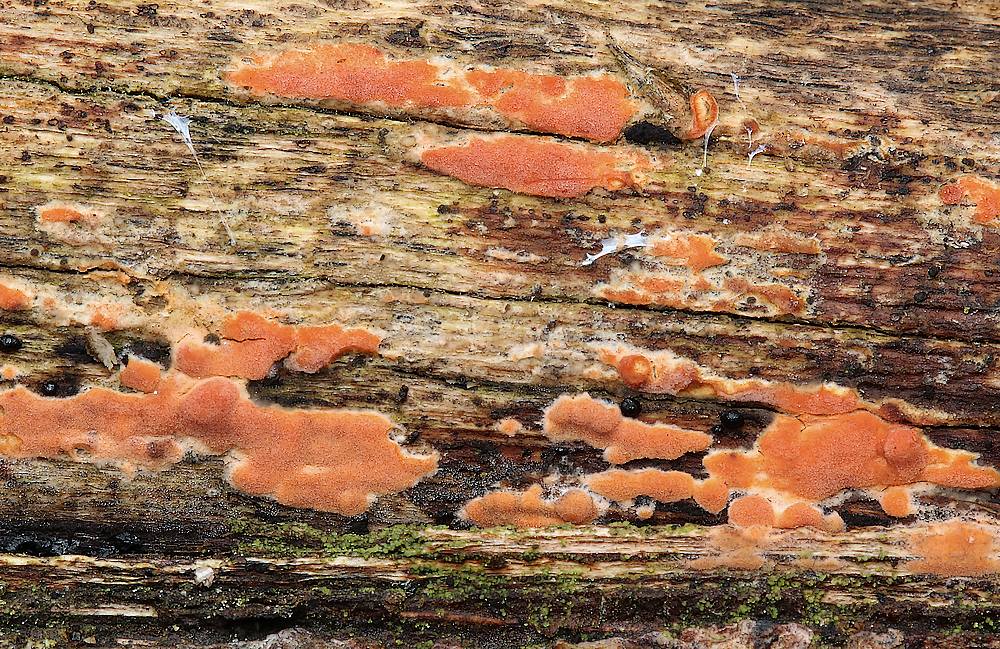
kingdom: Fungi
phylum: Basidiomycota
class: Agaricomycetes
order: Russulales
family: Peniophoraceae
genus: Peniophora
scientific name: Peniophora incarnata
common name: laksefarvet voksskind
